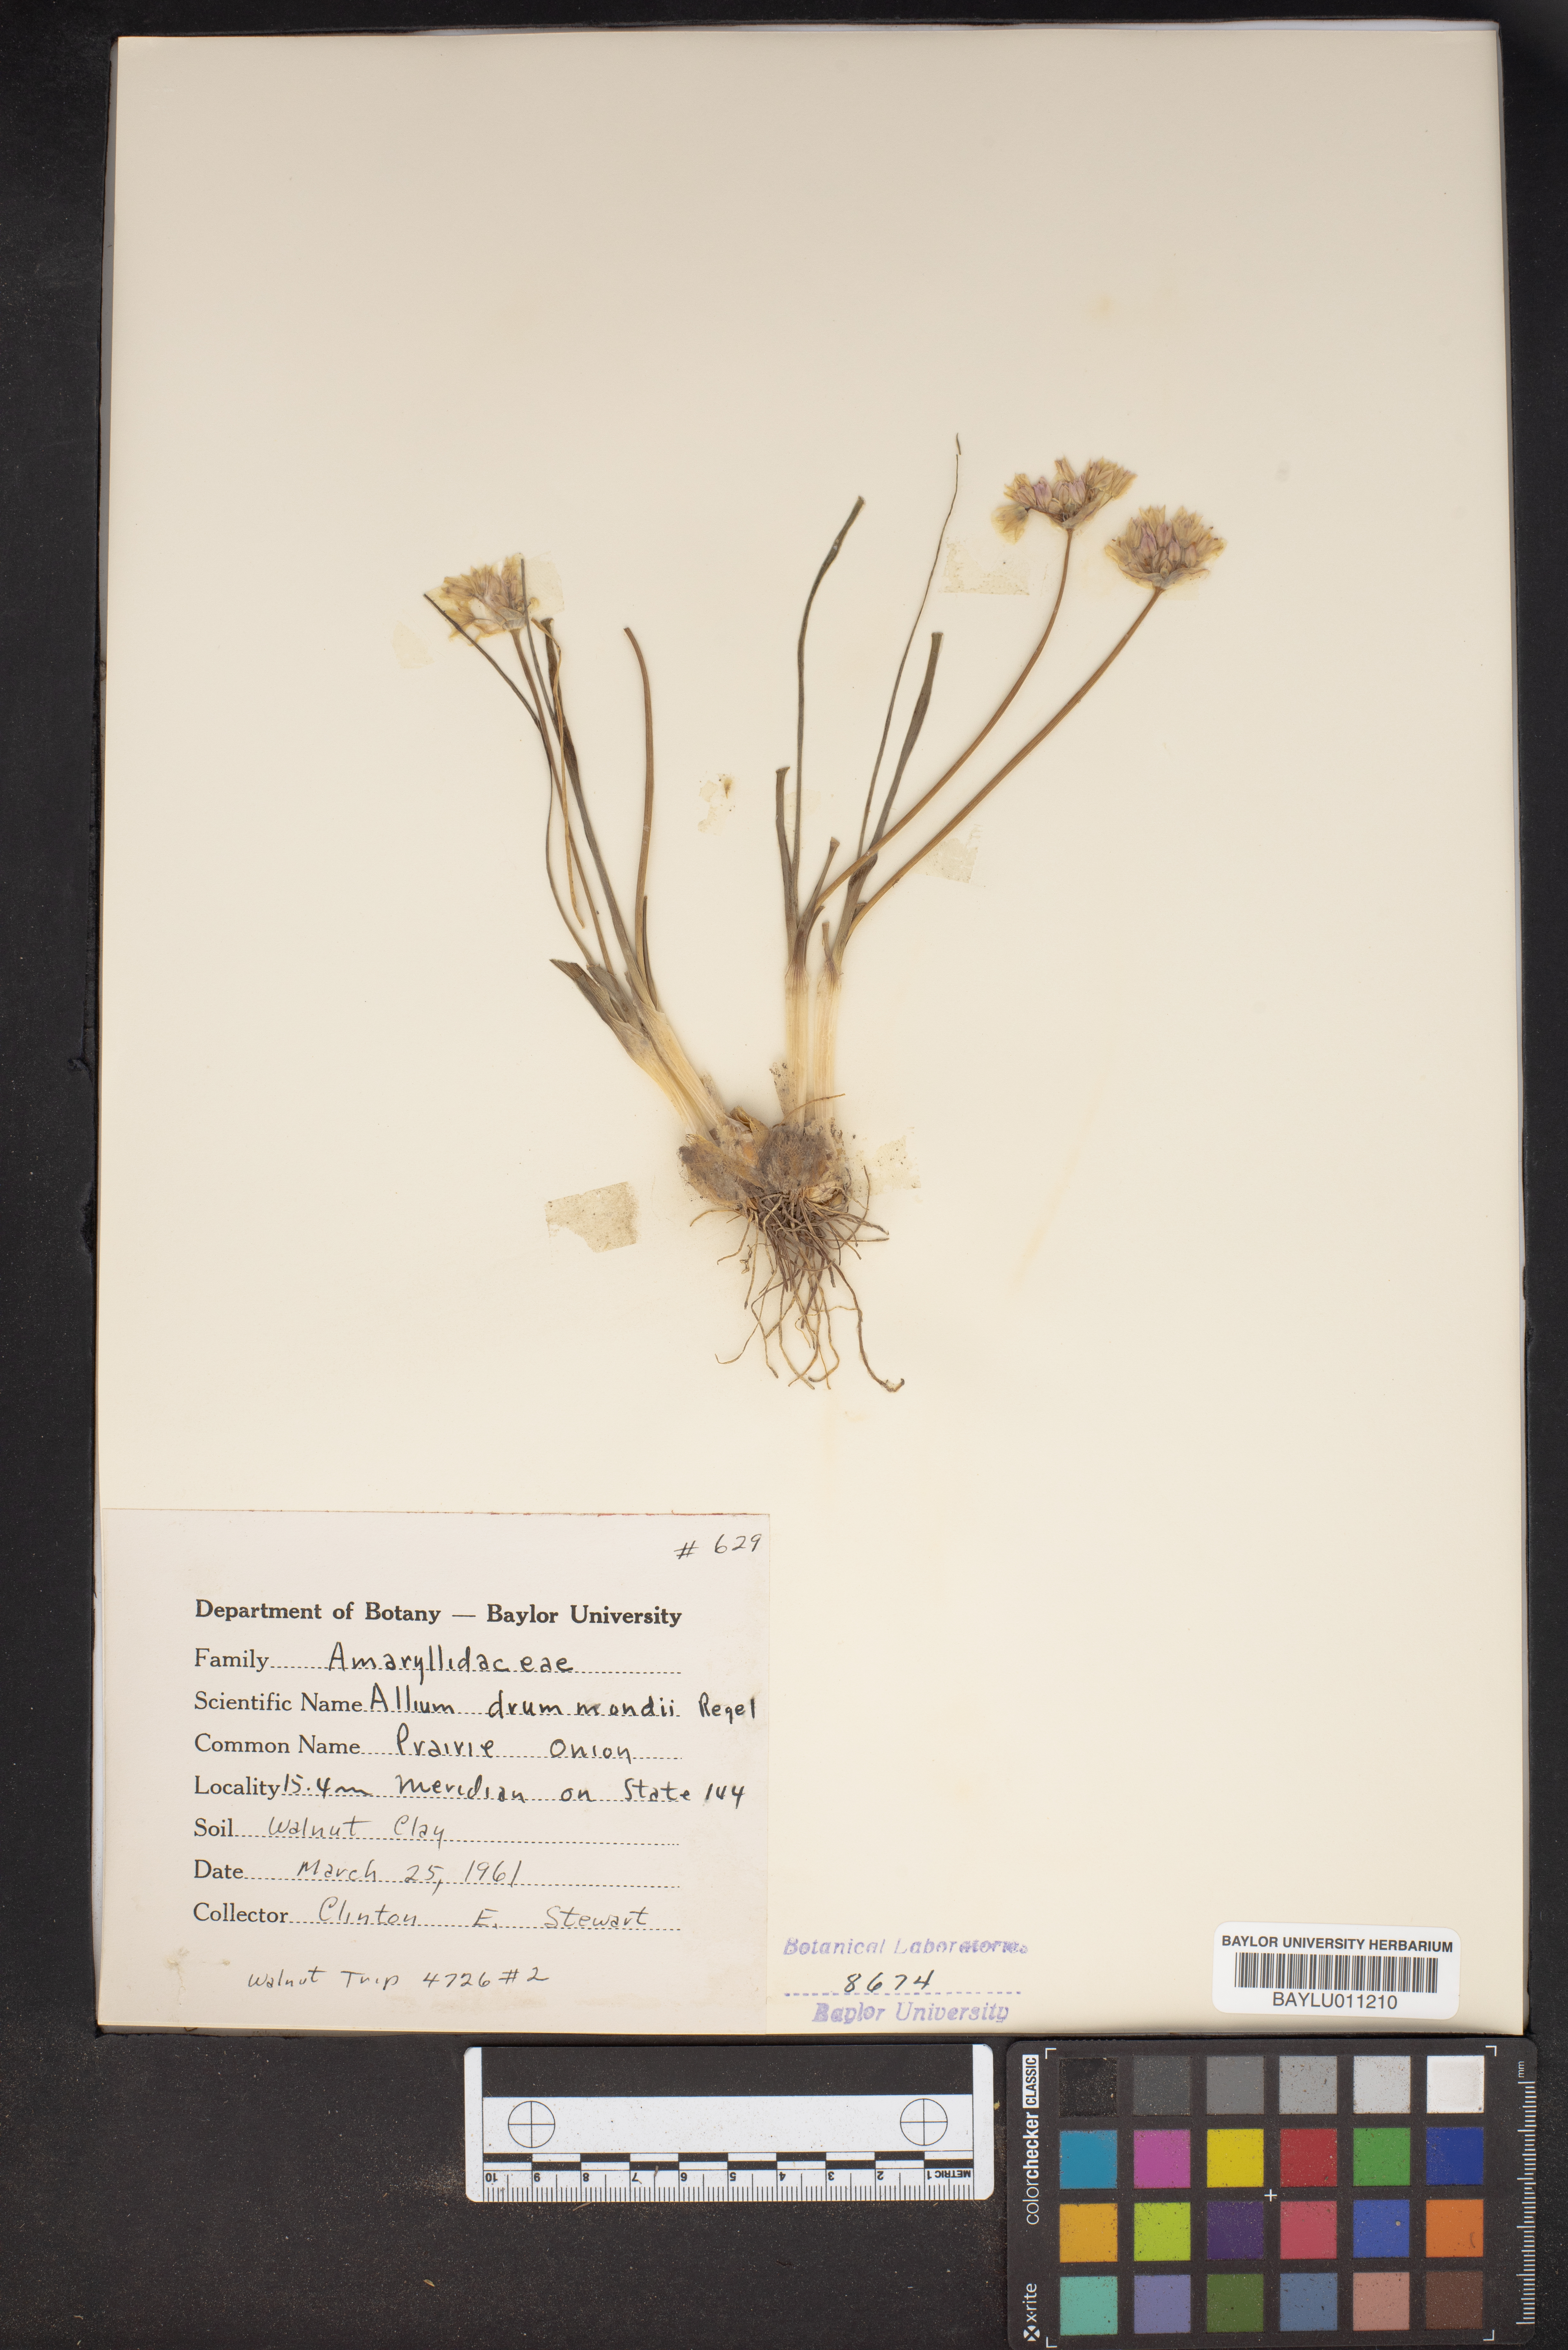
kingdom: Plantae
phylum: Tracheophyta
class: Liliopsida
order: Asparagales
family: Amaryllidaceae
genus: Allium
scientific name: Allium drummondii
